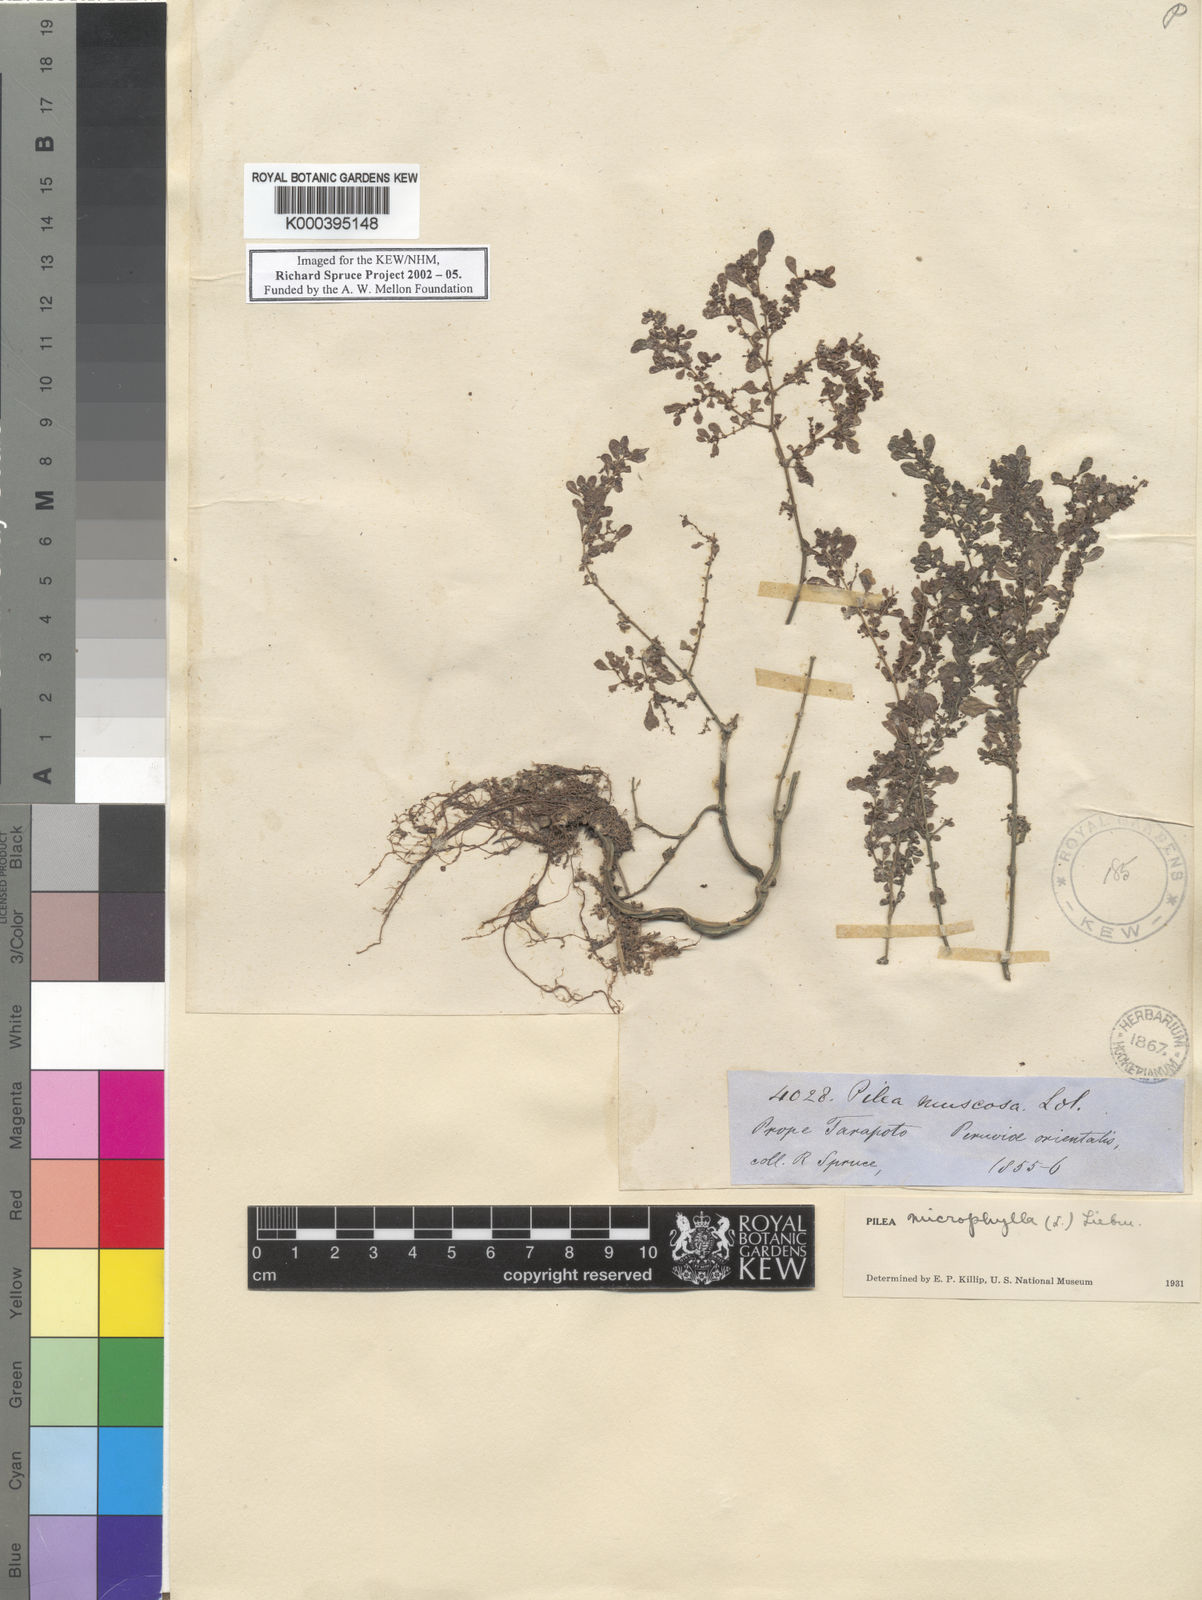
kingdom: Plantae
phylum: Tracheophyta
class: Magnoliopsida
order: Rosales
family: Urticaceae
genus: Pilea
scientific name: Pilea microphylla
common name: Artillery-plant
